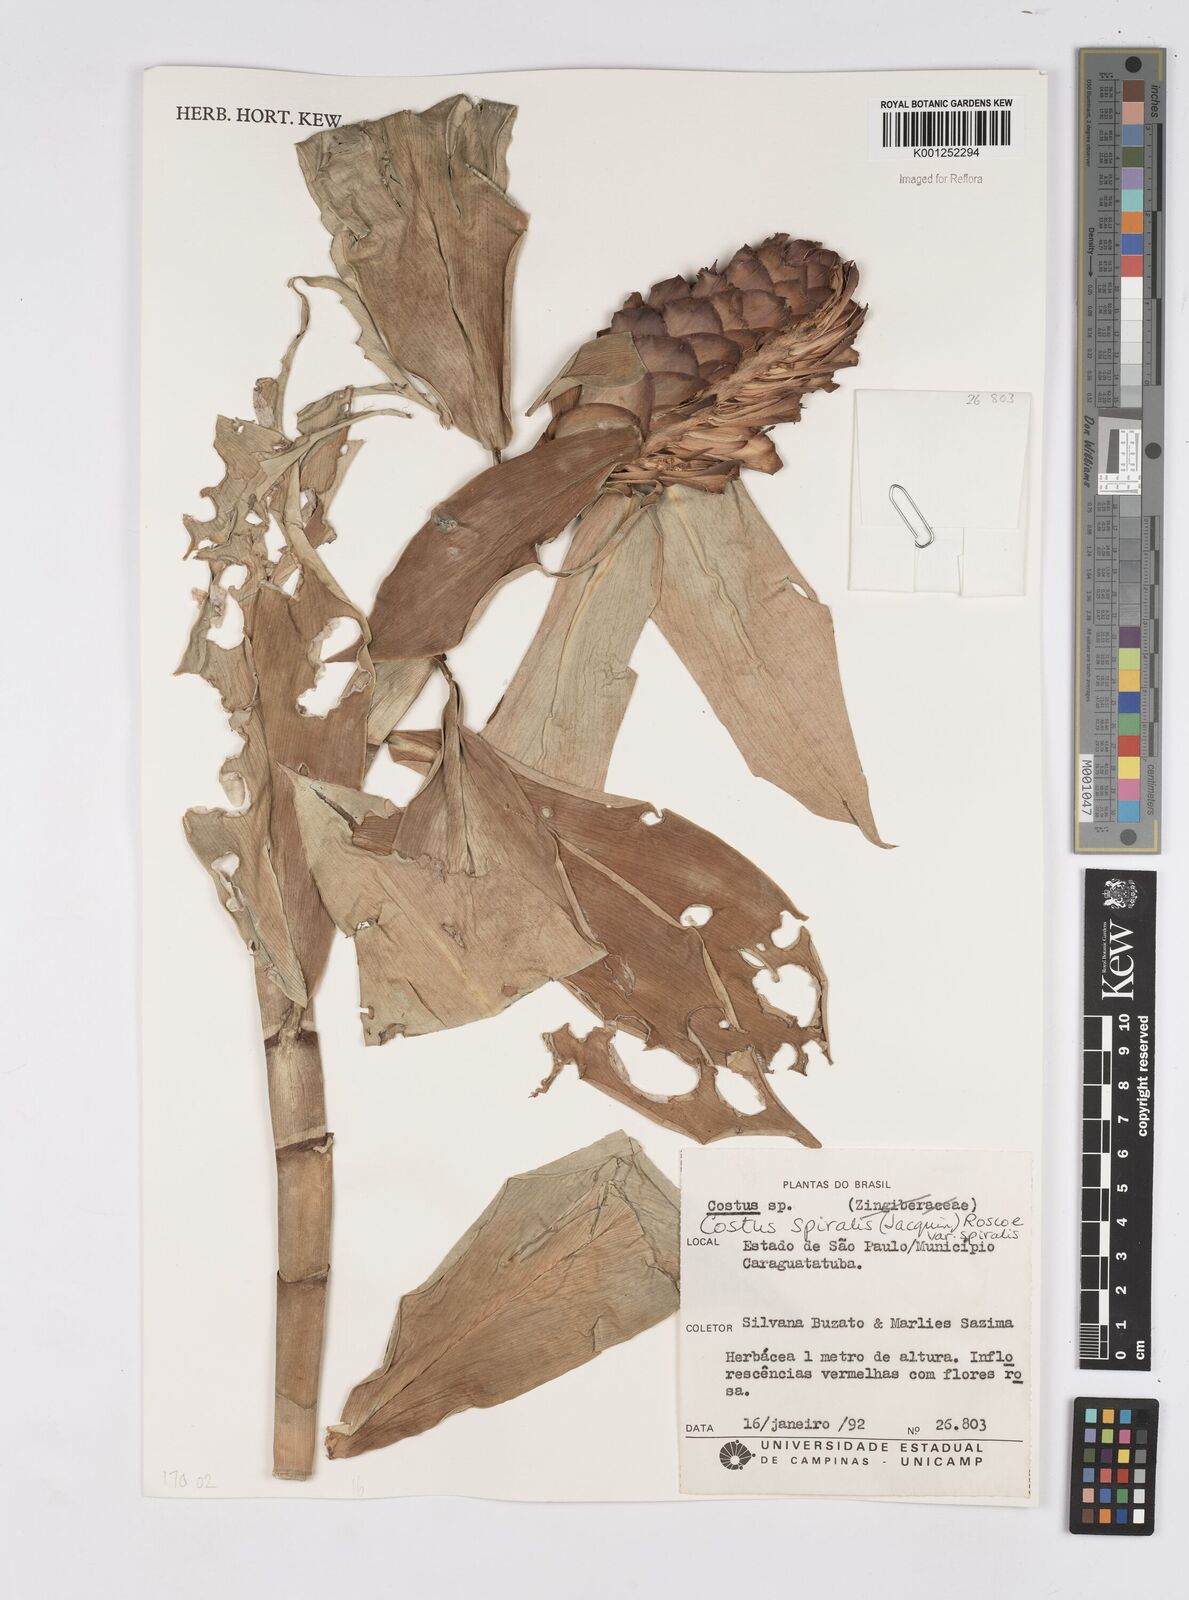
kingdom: Plantae
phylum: Tracheophyta
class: Liliopsida
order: Zingiberales
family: Costaceae
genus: Costus
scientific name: Costus spiralis
